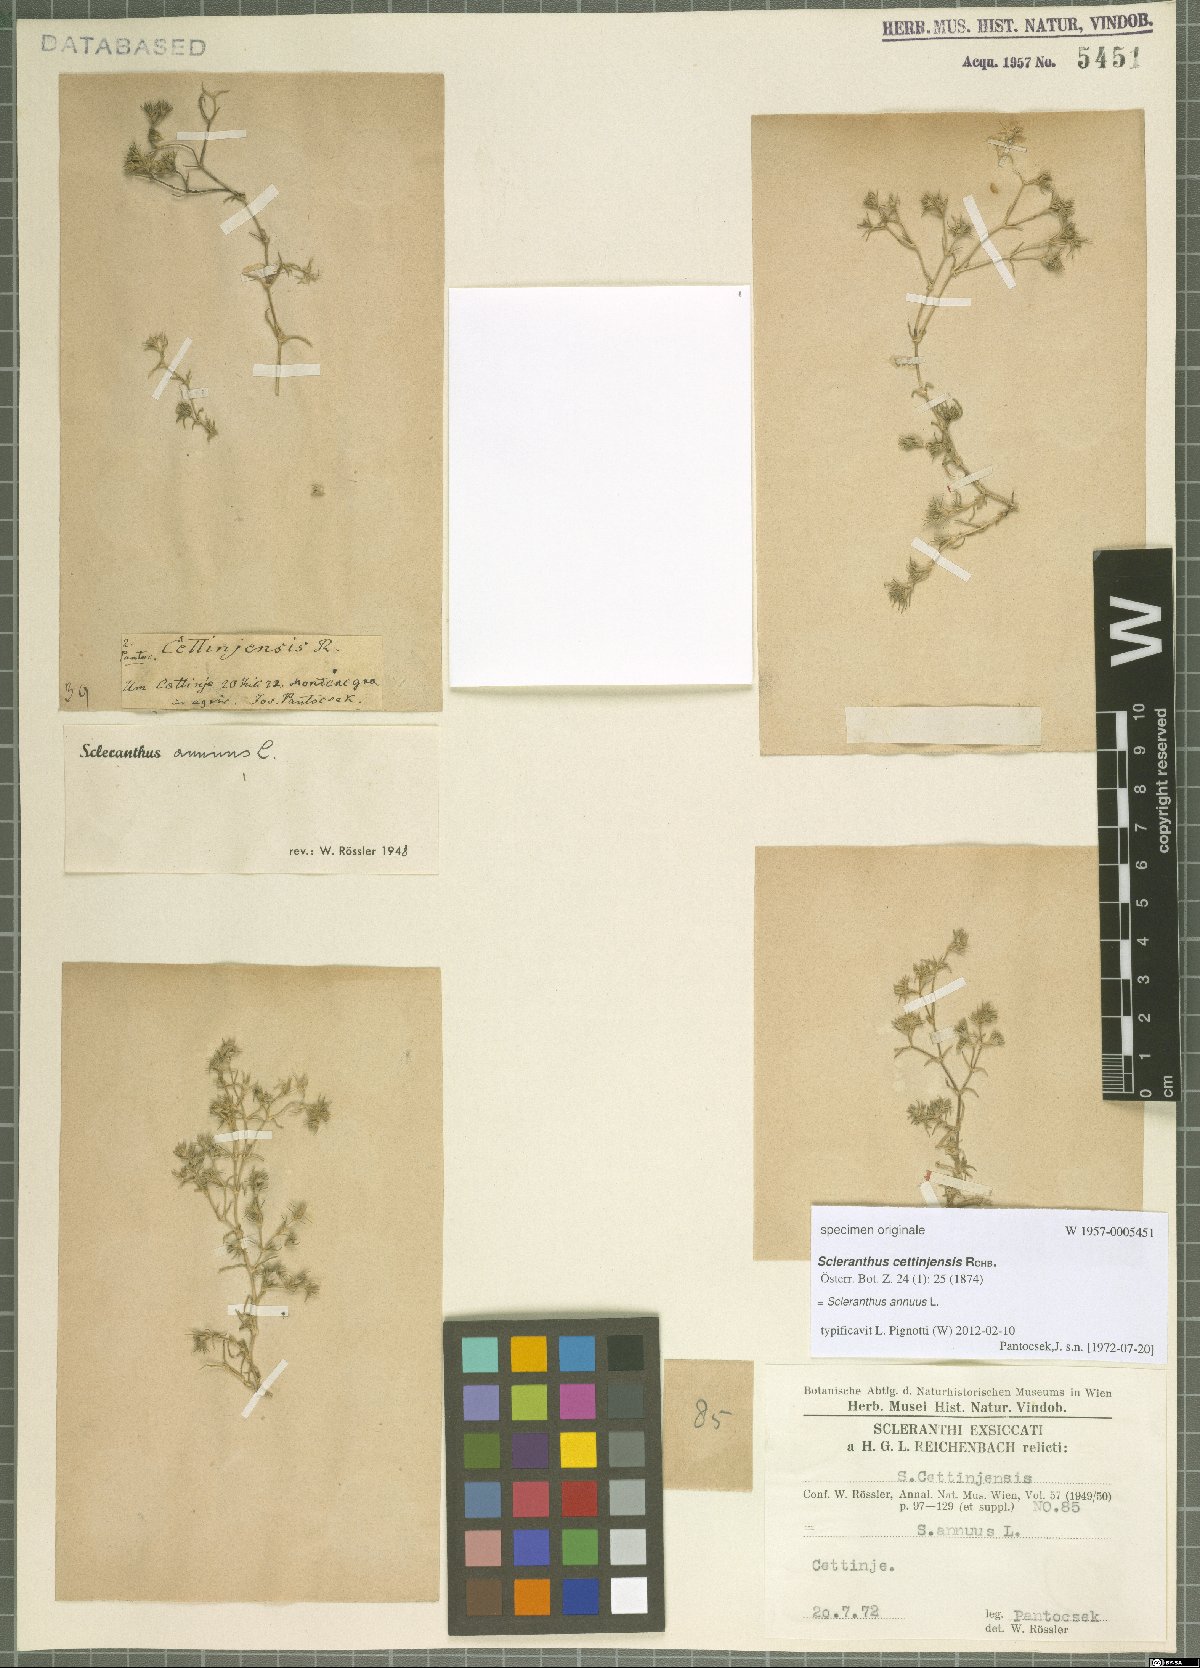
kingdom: Plantae
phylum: Tracheophyta
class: Magnoliopsida
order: Caryophyllales
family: Caryophyllaceae
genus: Scleranthus
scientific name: Scleranthus annuus
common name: Annual knawel
